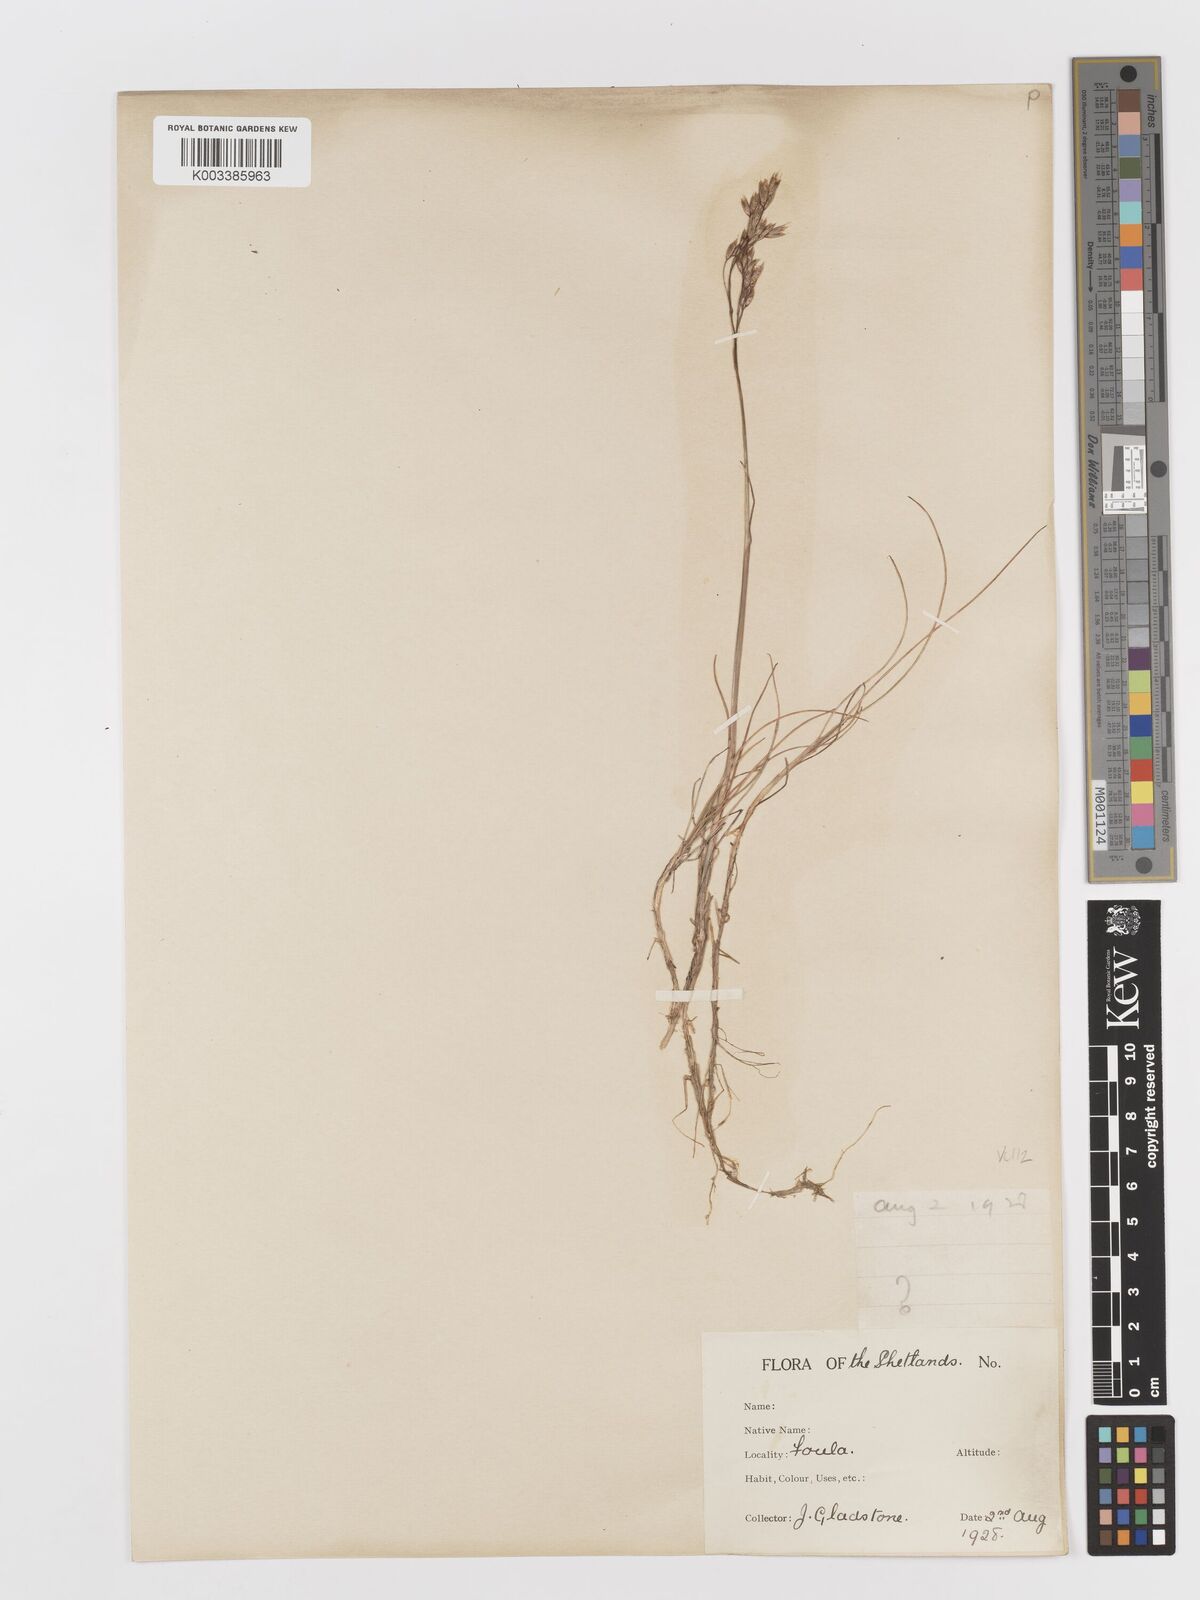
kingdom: Plantae
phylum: Tracheophyta
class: Liliopsida
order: Poales
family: Poaceae
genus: Avenella
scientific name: Avenella flexuosa
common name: Wavy hairgrass
